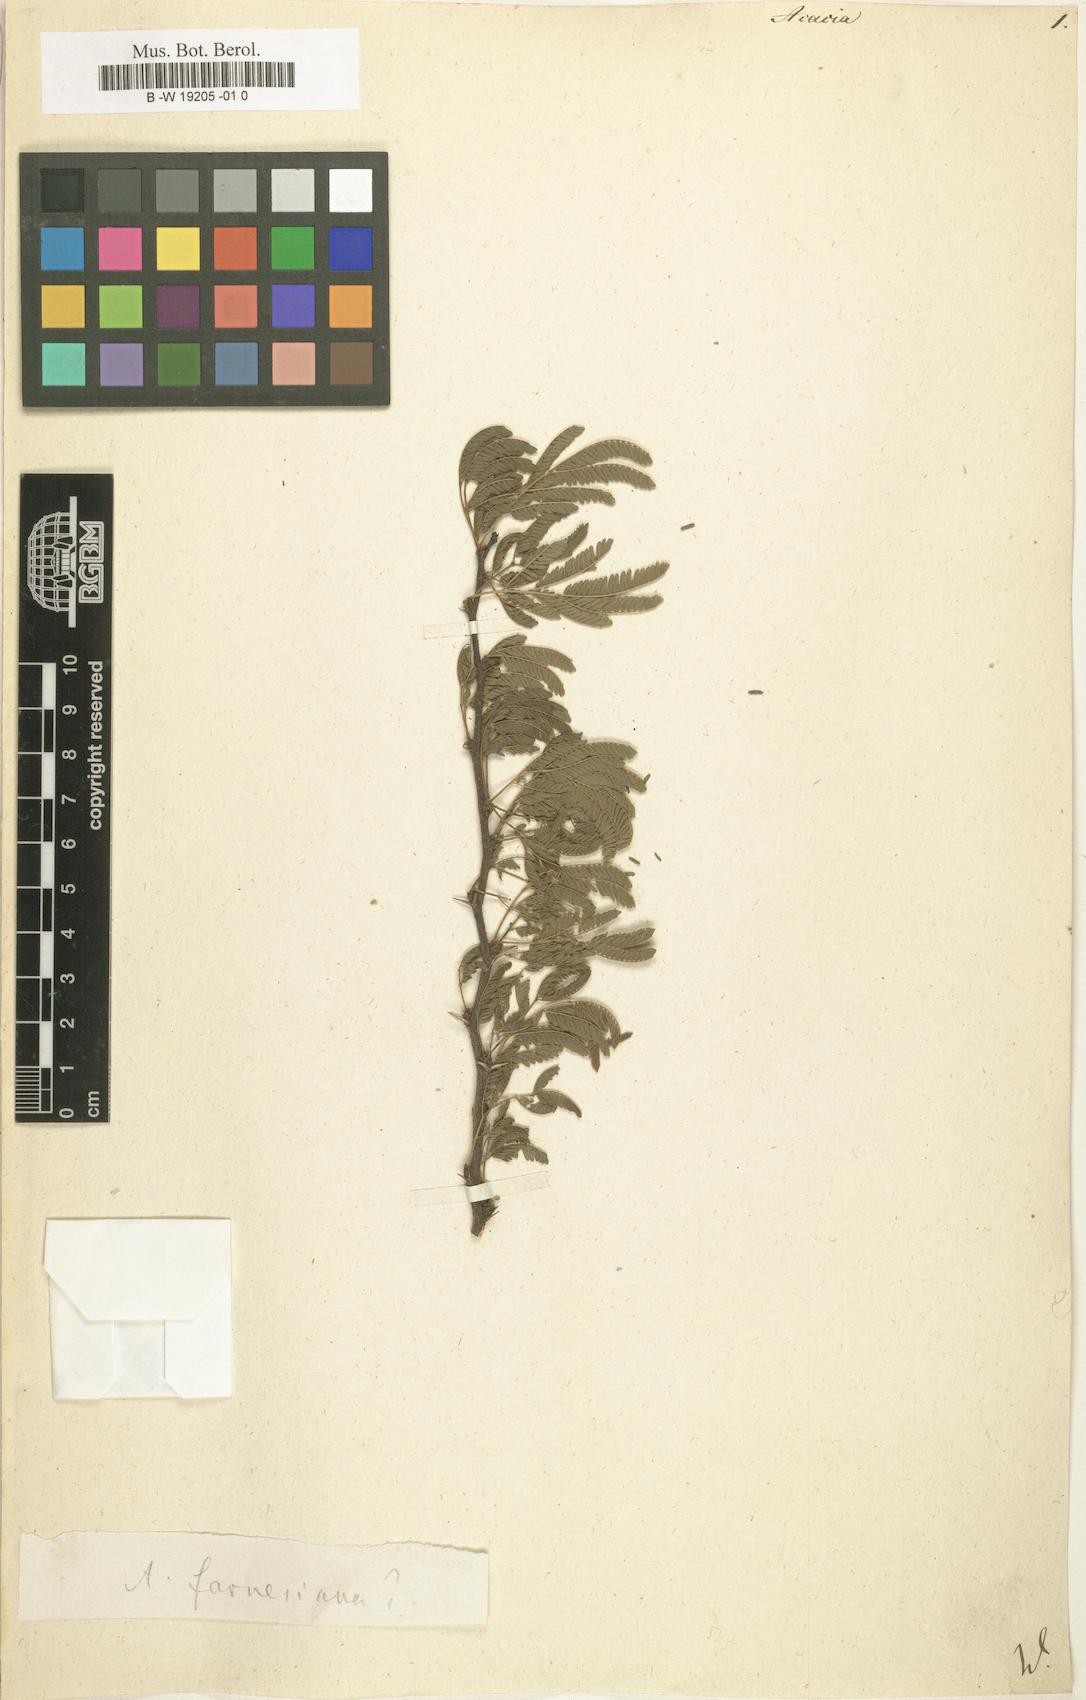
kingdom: Plantae
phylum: Tracheophyta
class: Magnoliopsida
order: Fabales
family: Fabaceae
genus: Acacia
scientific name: Acacia
